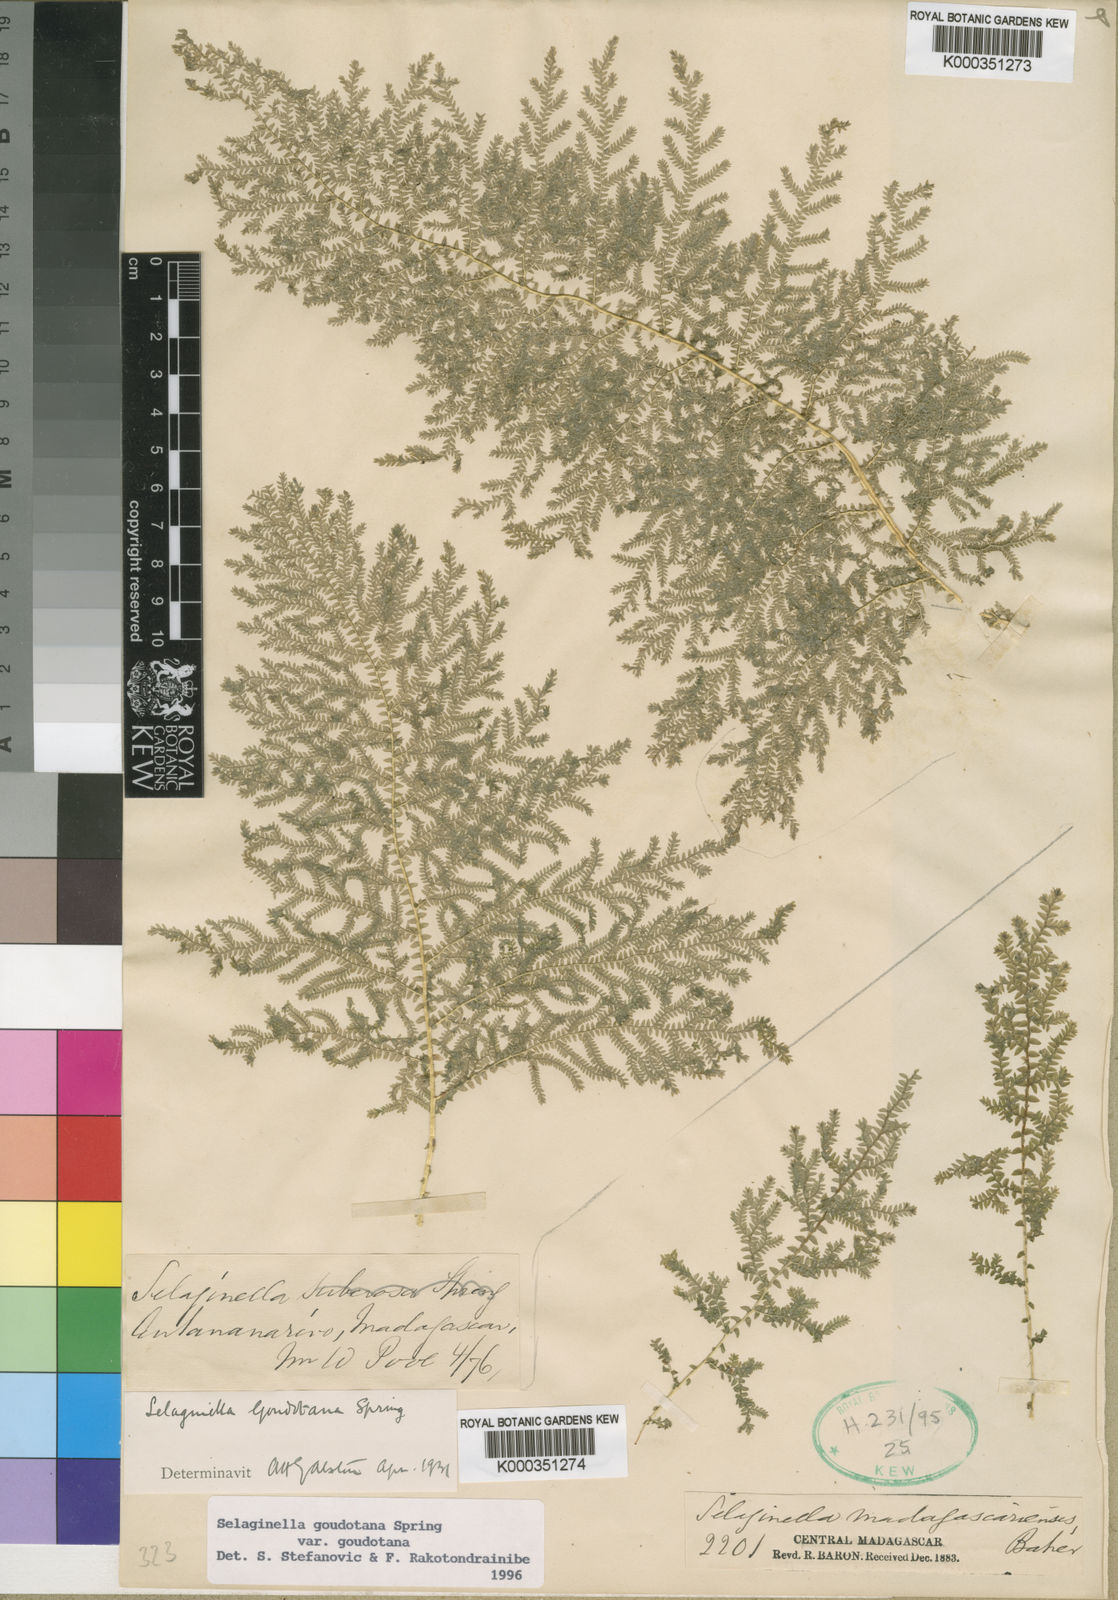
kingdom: Plantae
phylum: Tracheophyta
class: Lycopodiopsida
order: Selaginellales
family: Selaginellaceae
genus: Selaginella
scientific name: Selaginella goudotiana
